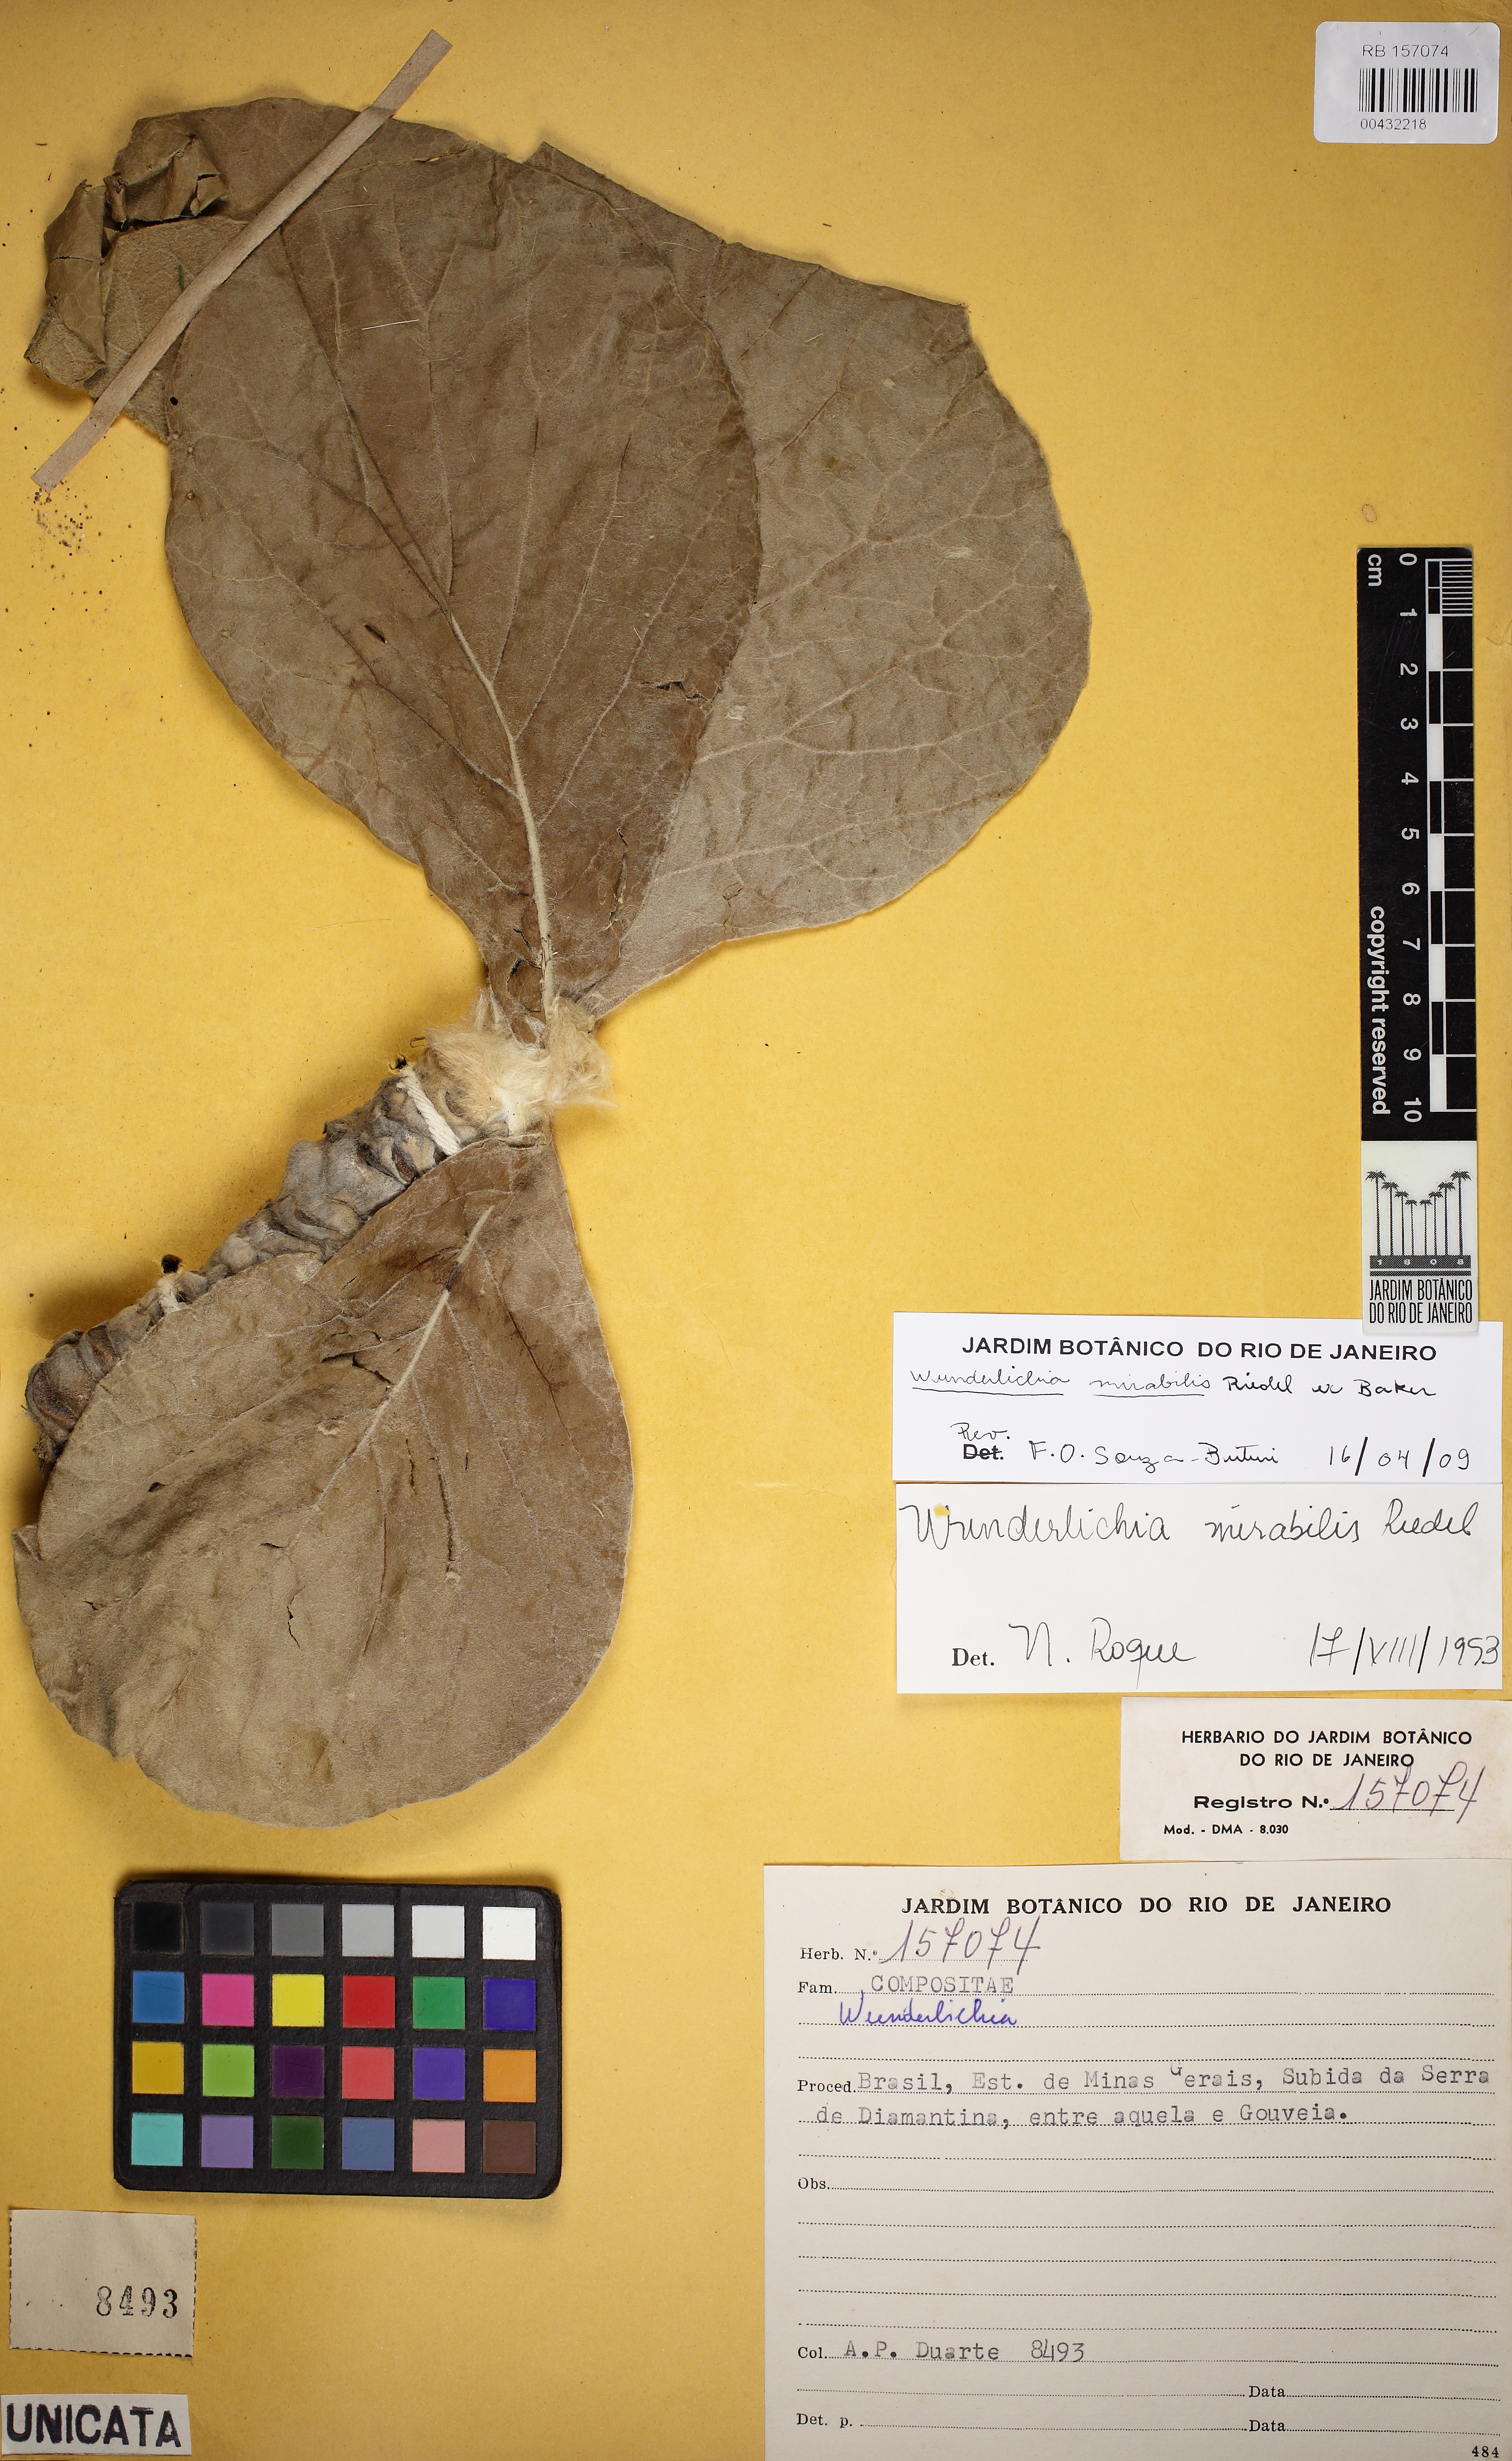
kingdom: Plantae
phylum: Tracheophyta
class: Magnoliopsida
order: Asterales
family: Asteraceae
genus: Wunderlichia
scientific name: Wunderlichia mirabilis
